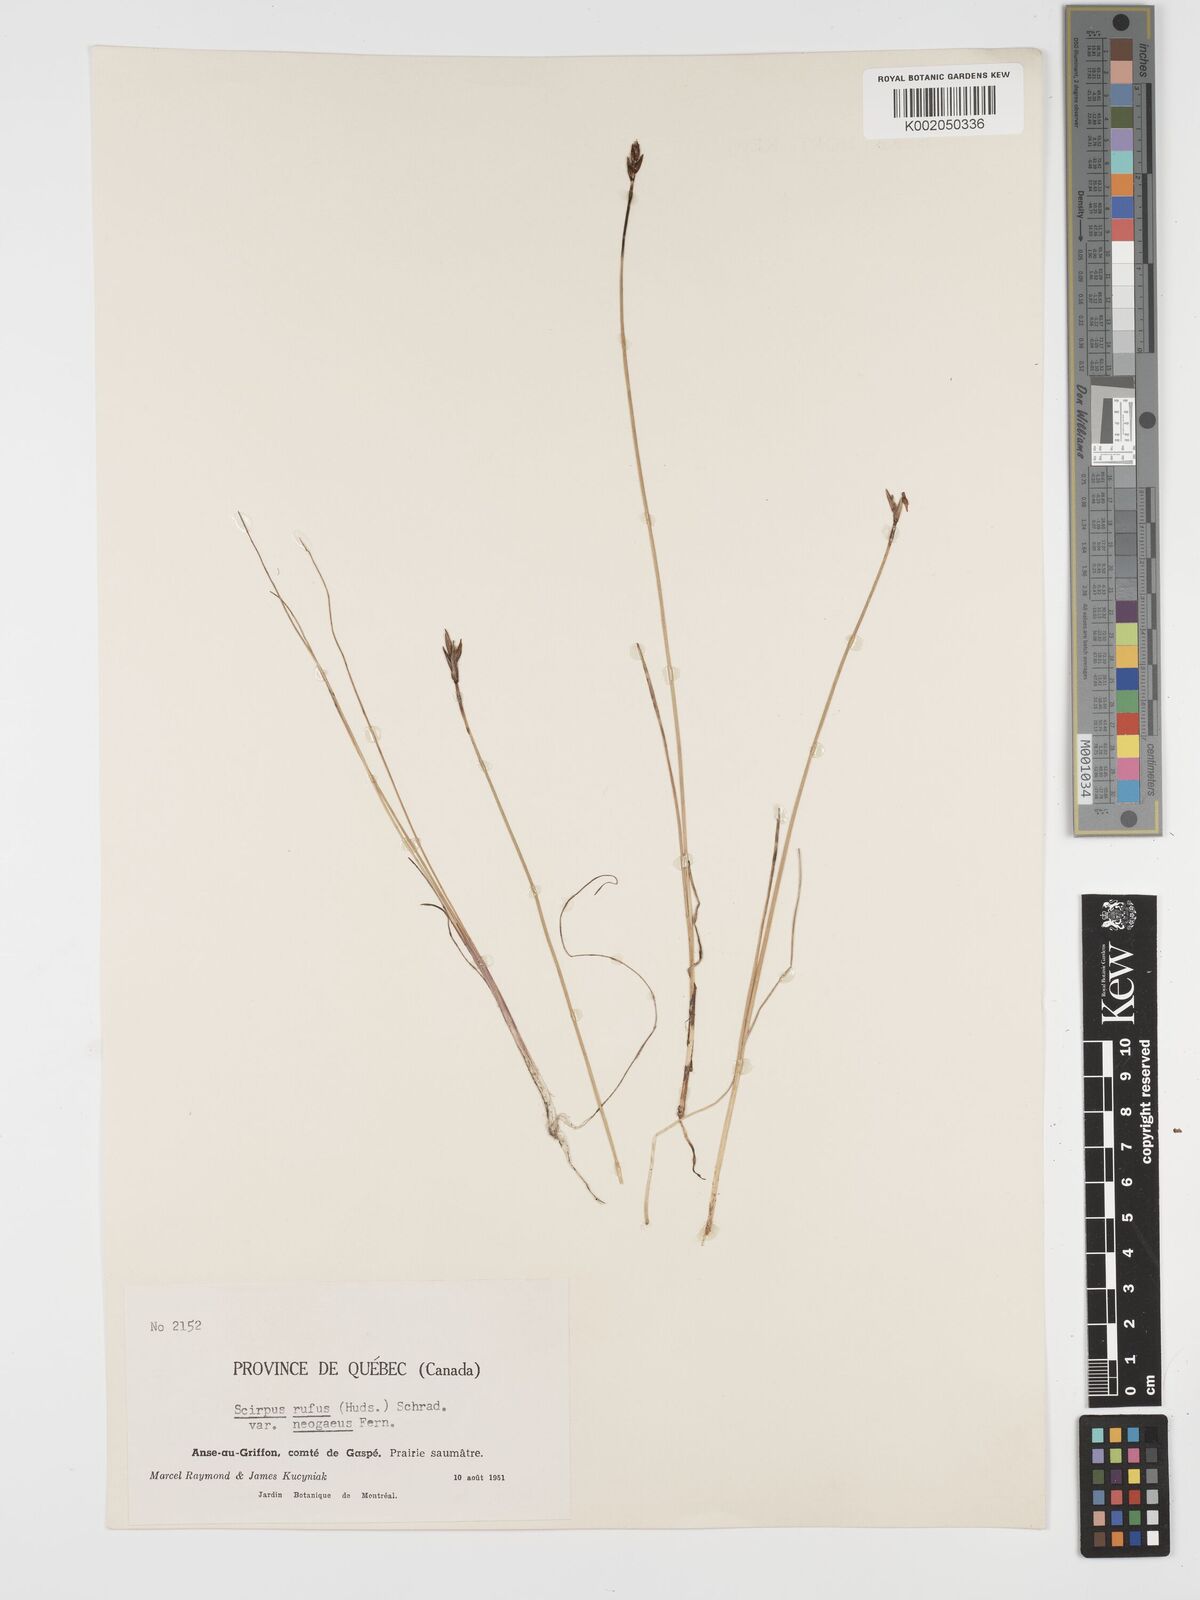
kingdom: Plantae
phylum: Tracheophyta
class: Liliopsida
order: Poales
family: Cyperaceae
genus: Blysmus
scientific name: Blysmus rufus
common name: Saltmarsh flat-sedge
